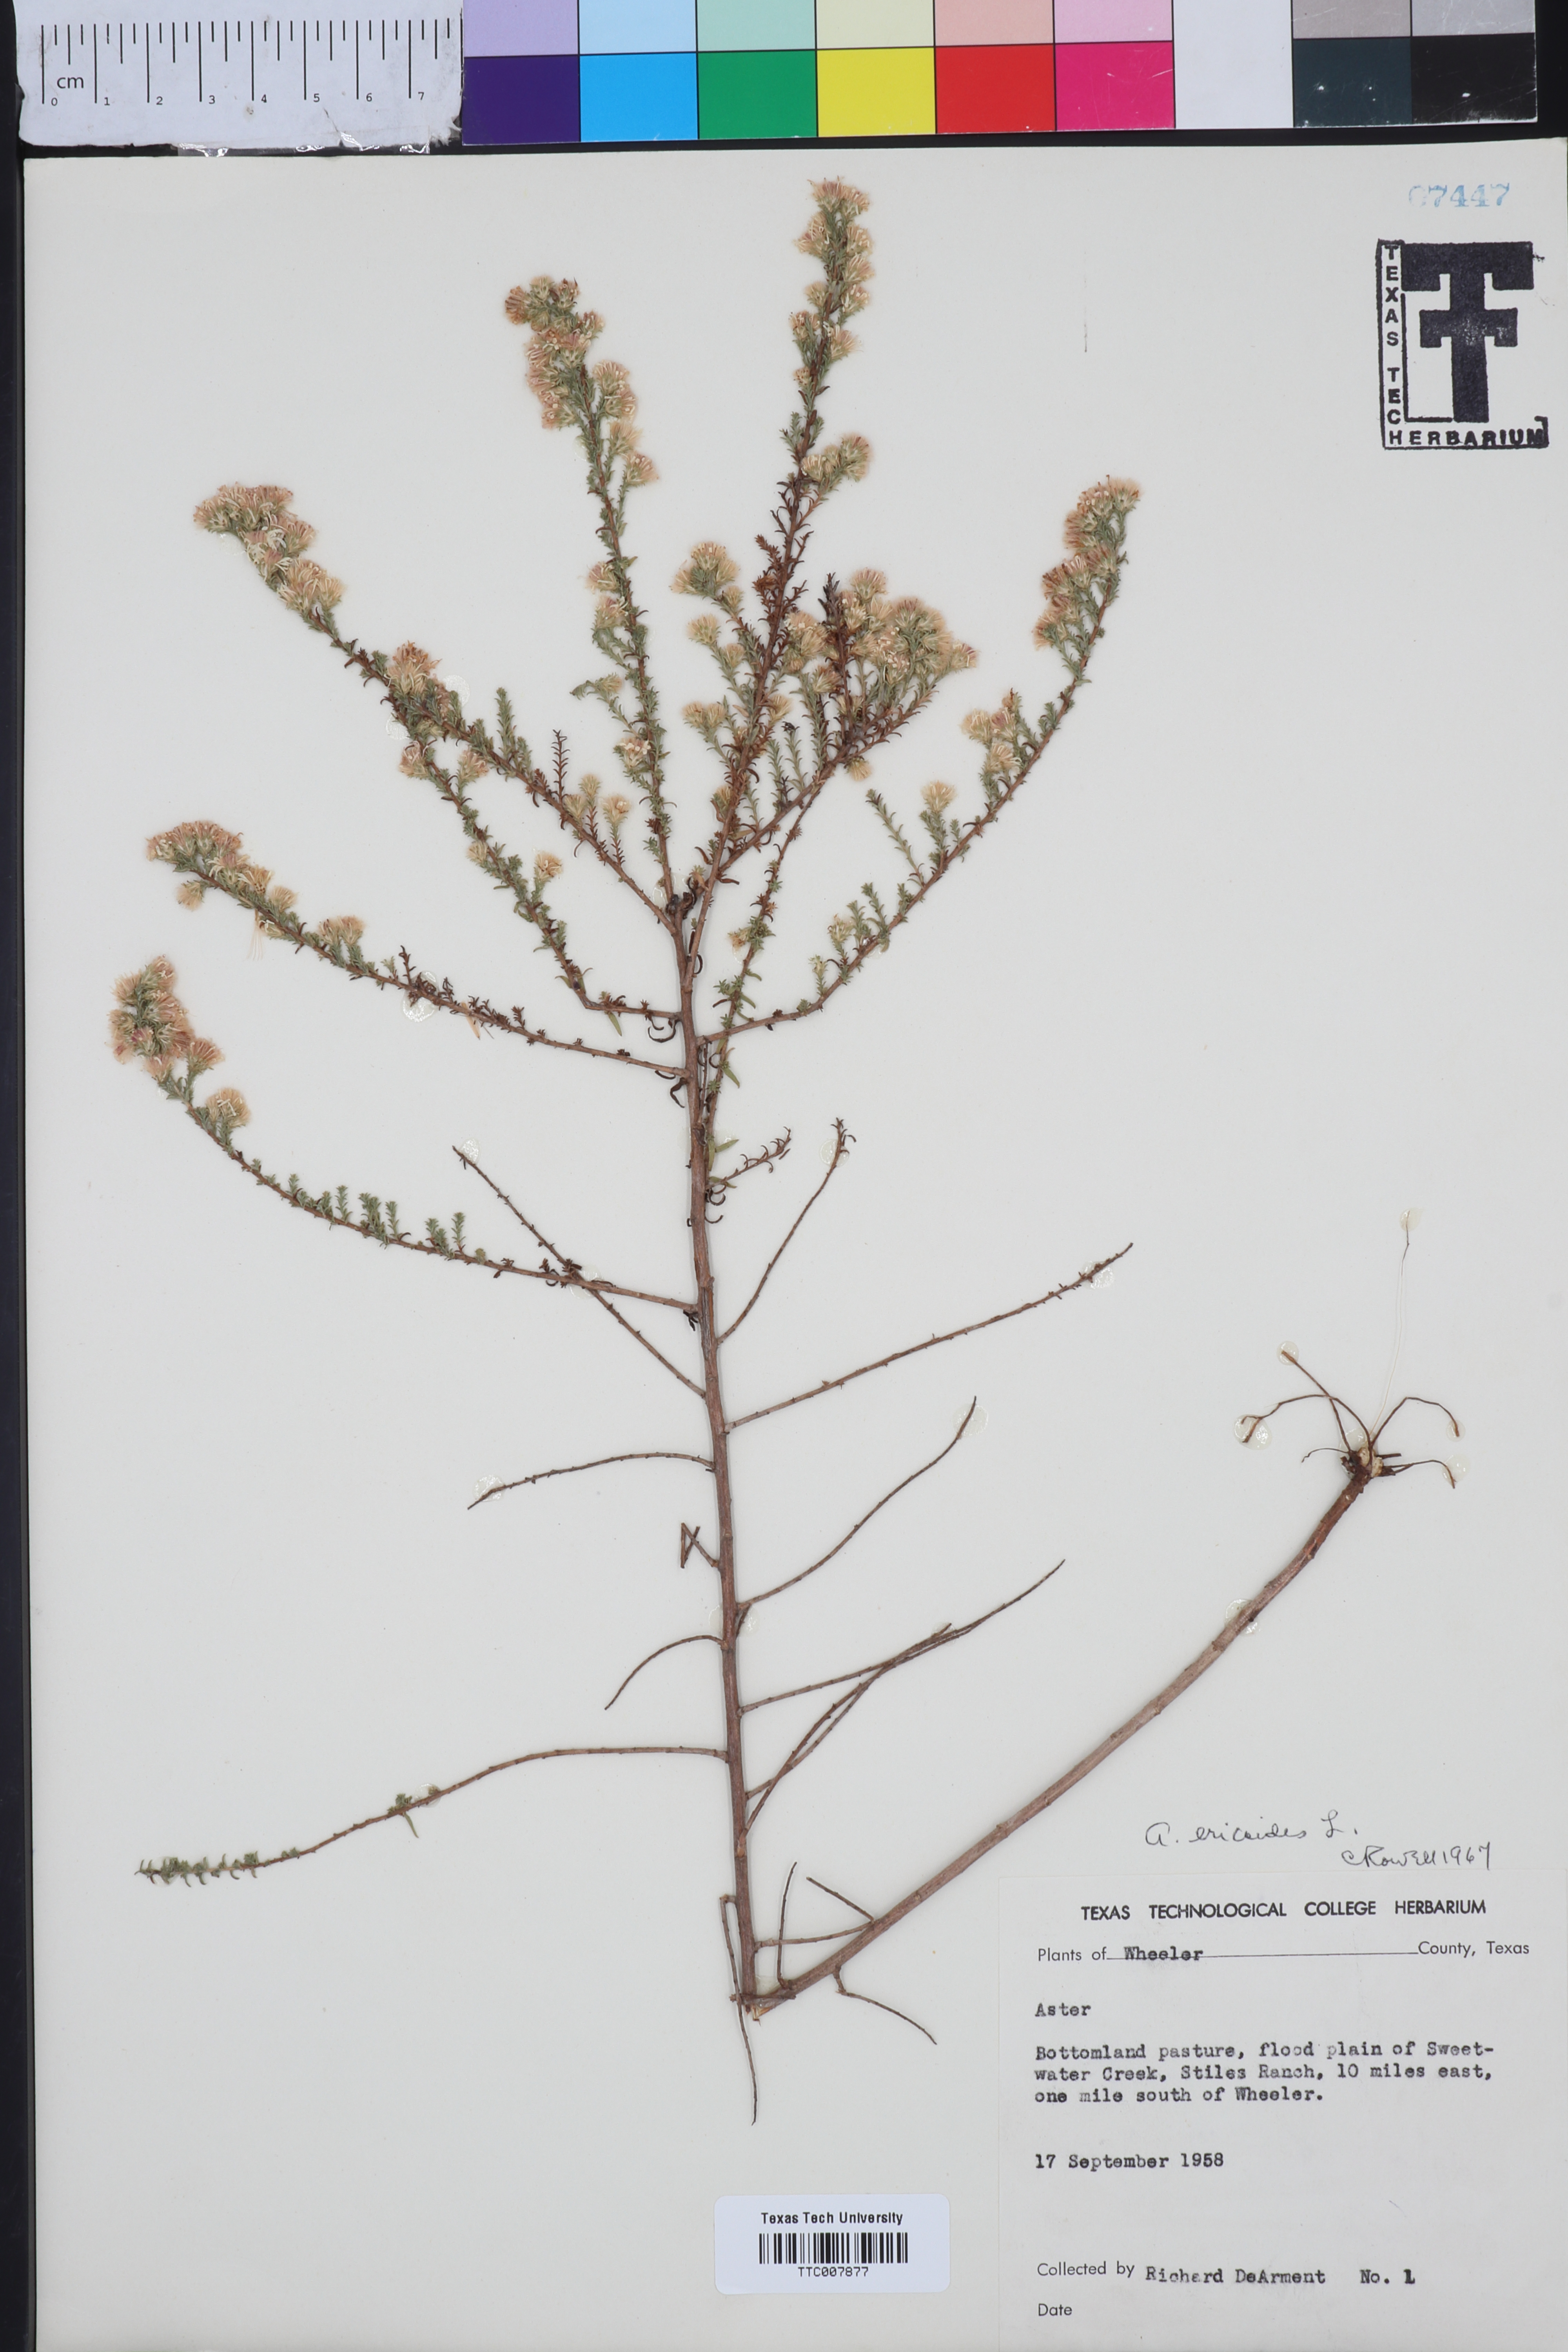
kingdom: Plantae
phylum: Tracheophyta
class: Magnoliopsida
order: Asterales
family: Asteraceae
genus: Symphyotrichum
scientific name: Symphyotrichum ericoides
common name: Heath aster
